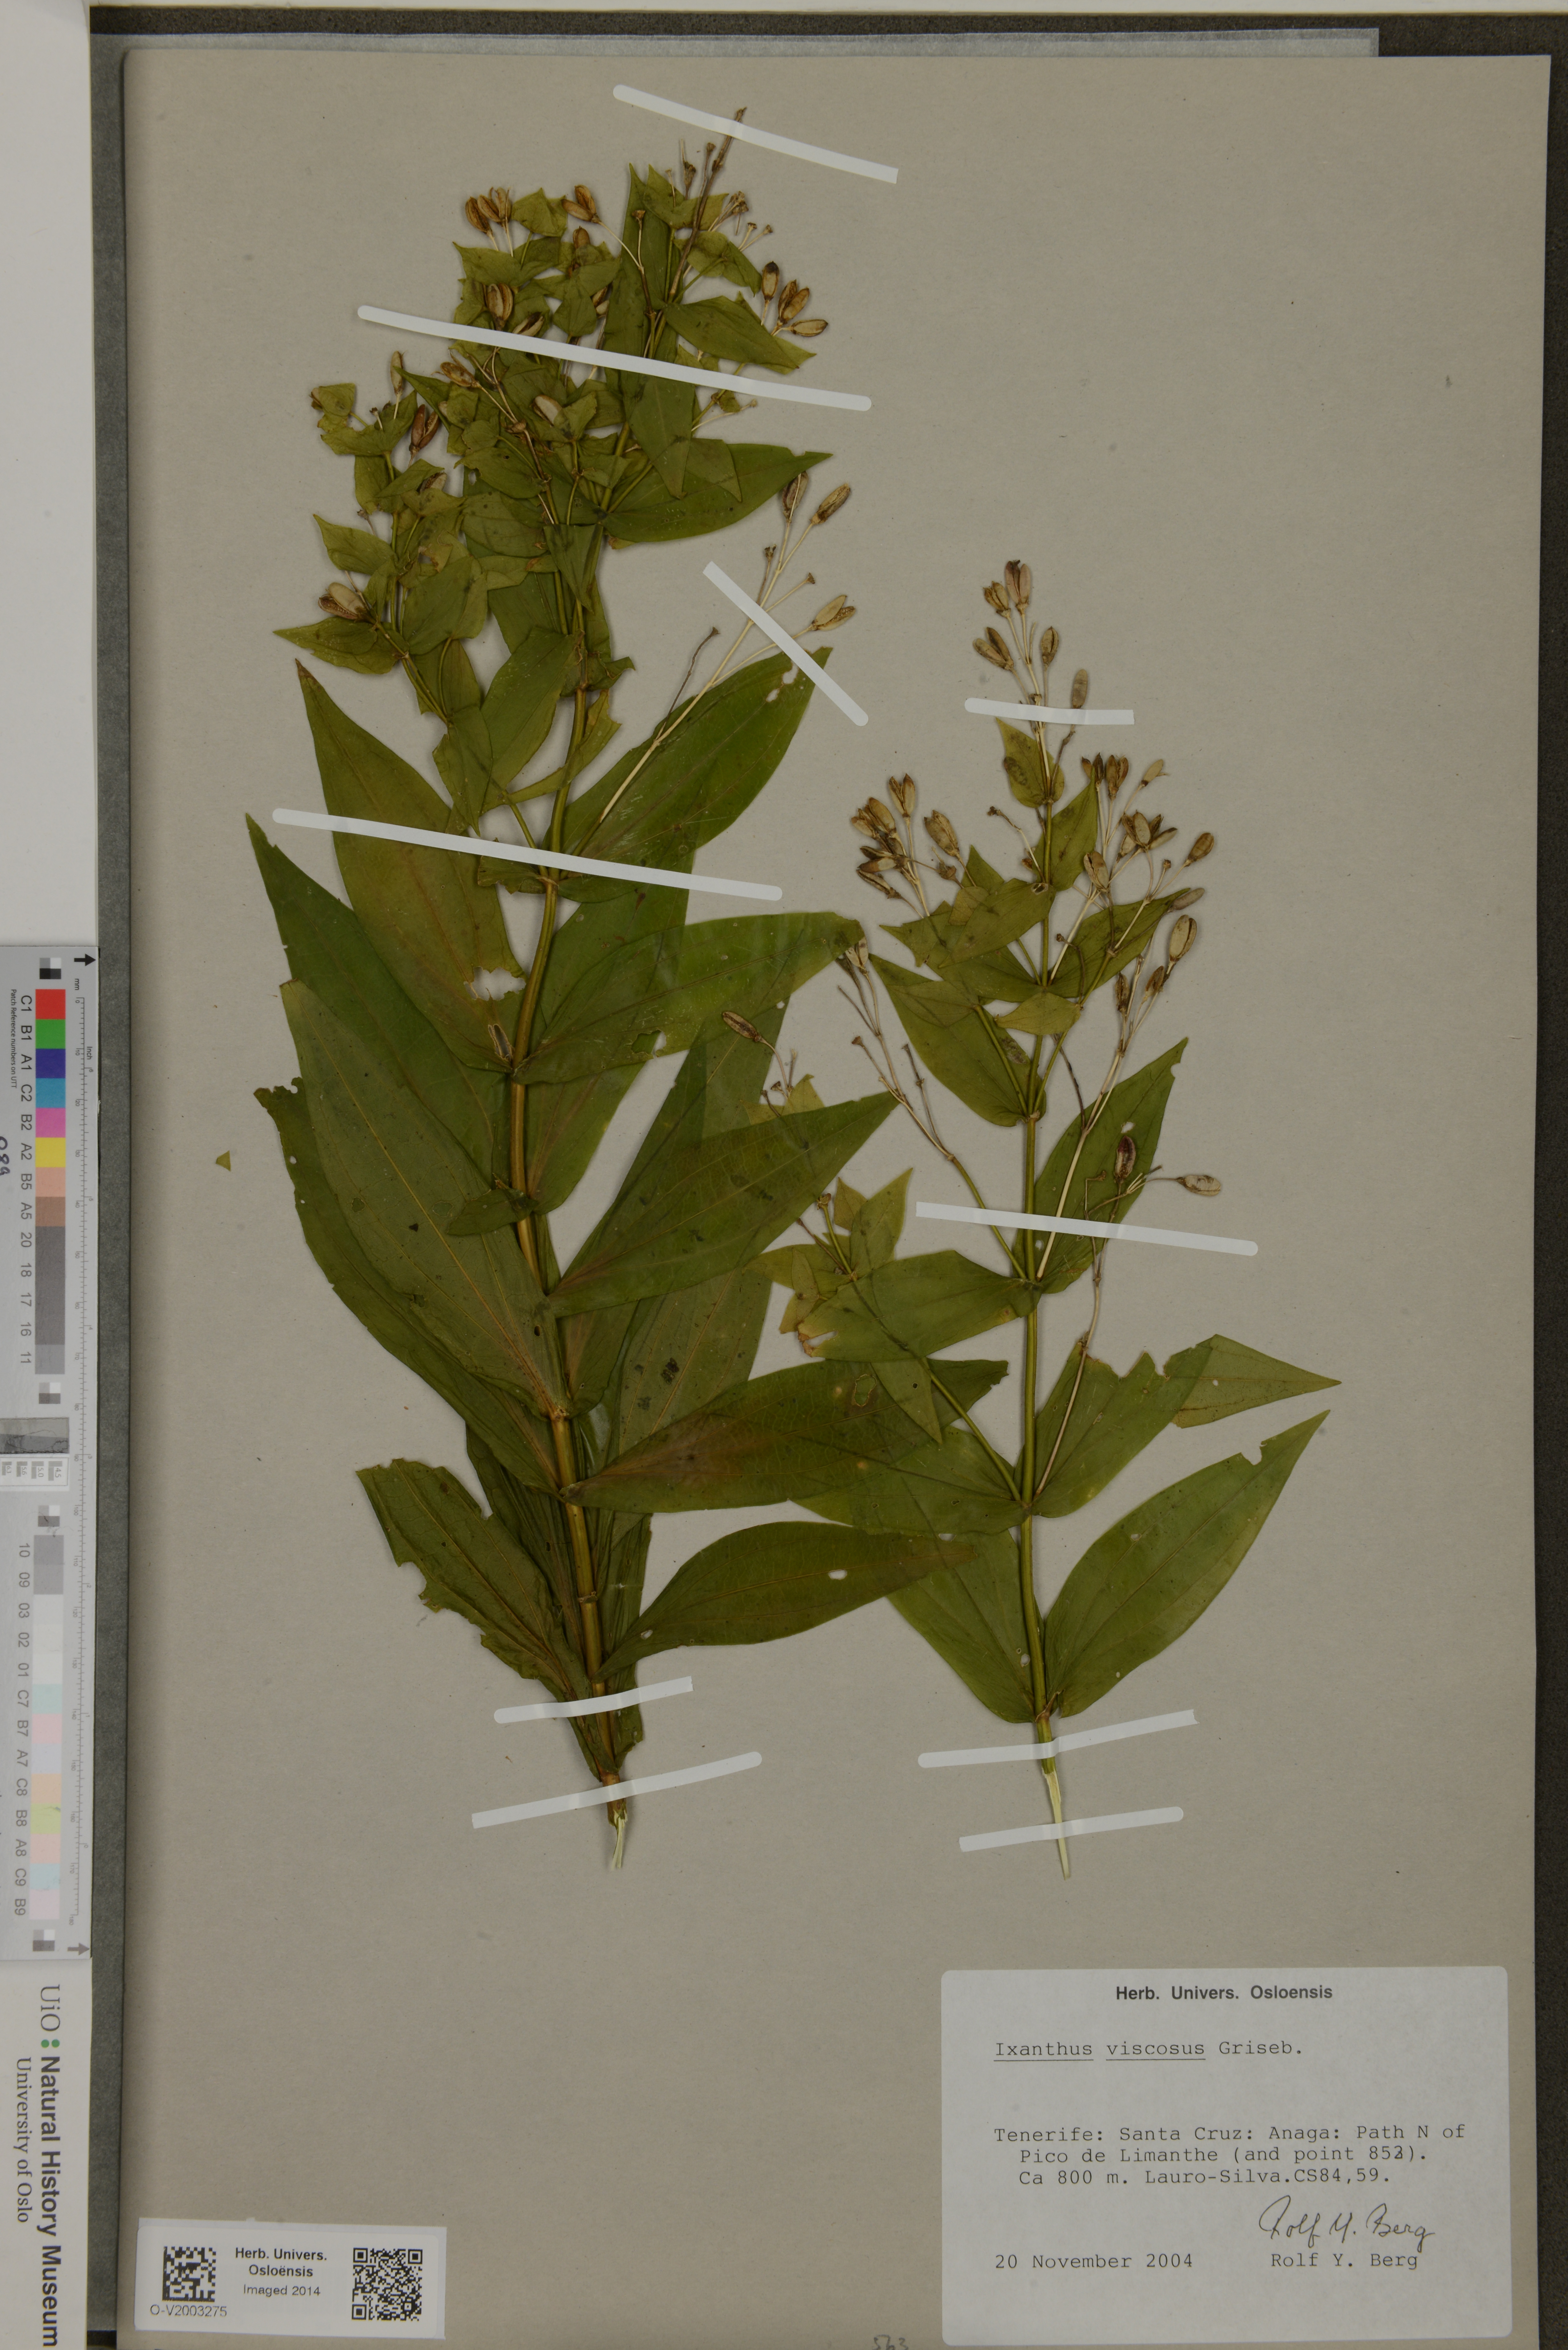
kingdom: Plantae
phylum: Tracheophyta
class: Magnoliopsida
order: Gentianales
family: Gentianaceae
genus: Ixanthus
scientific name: Ixanthus viscosus
